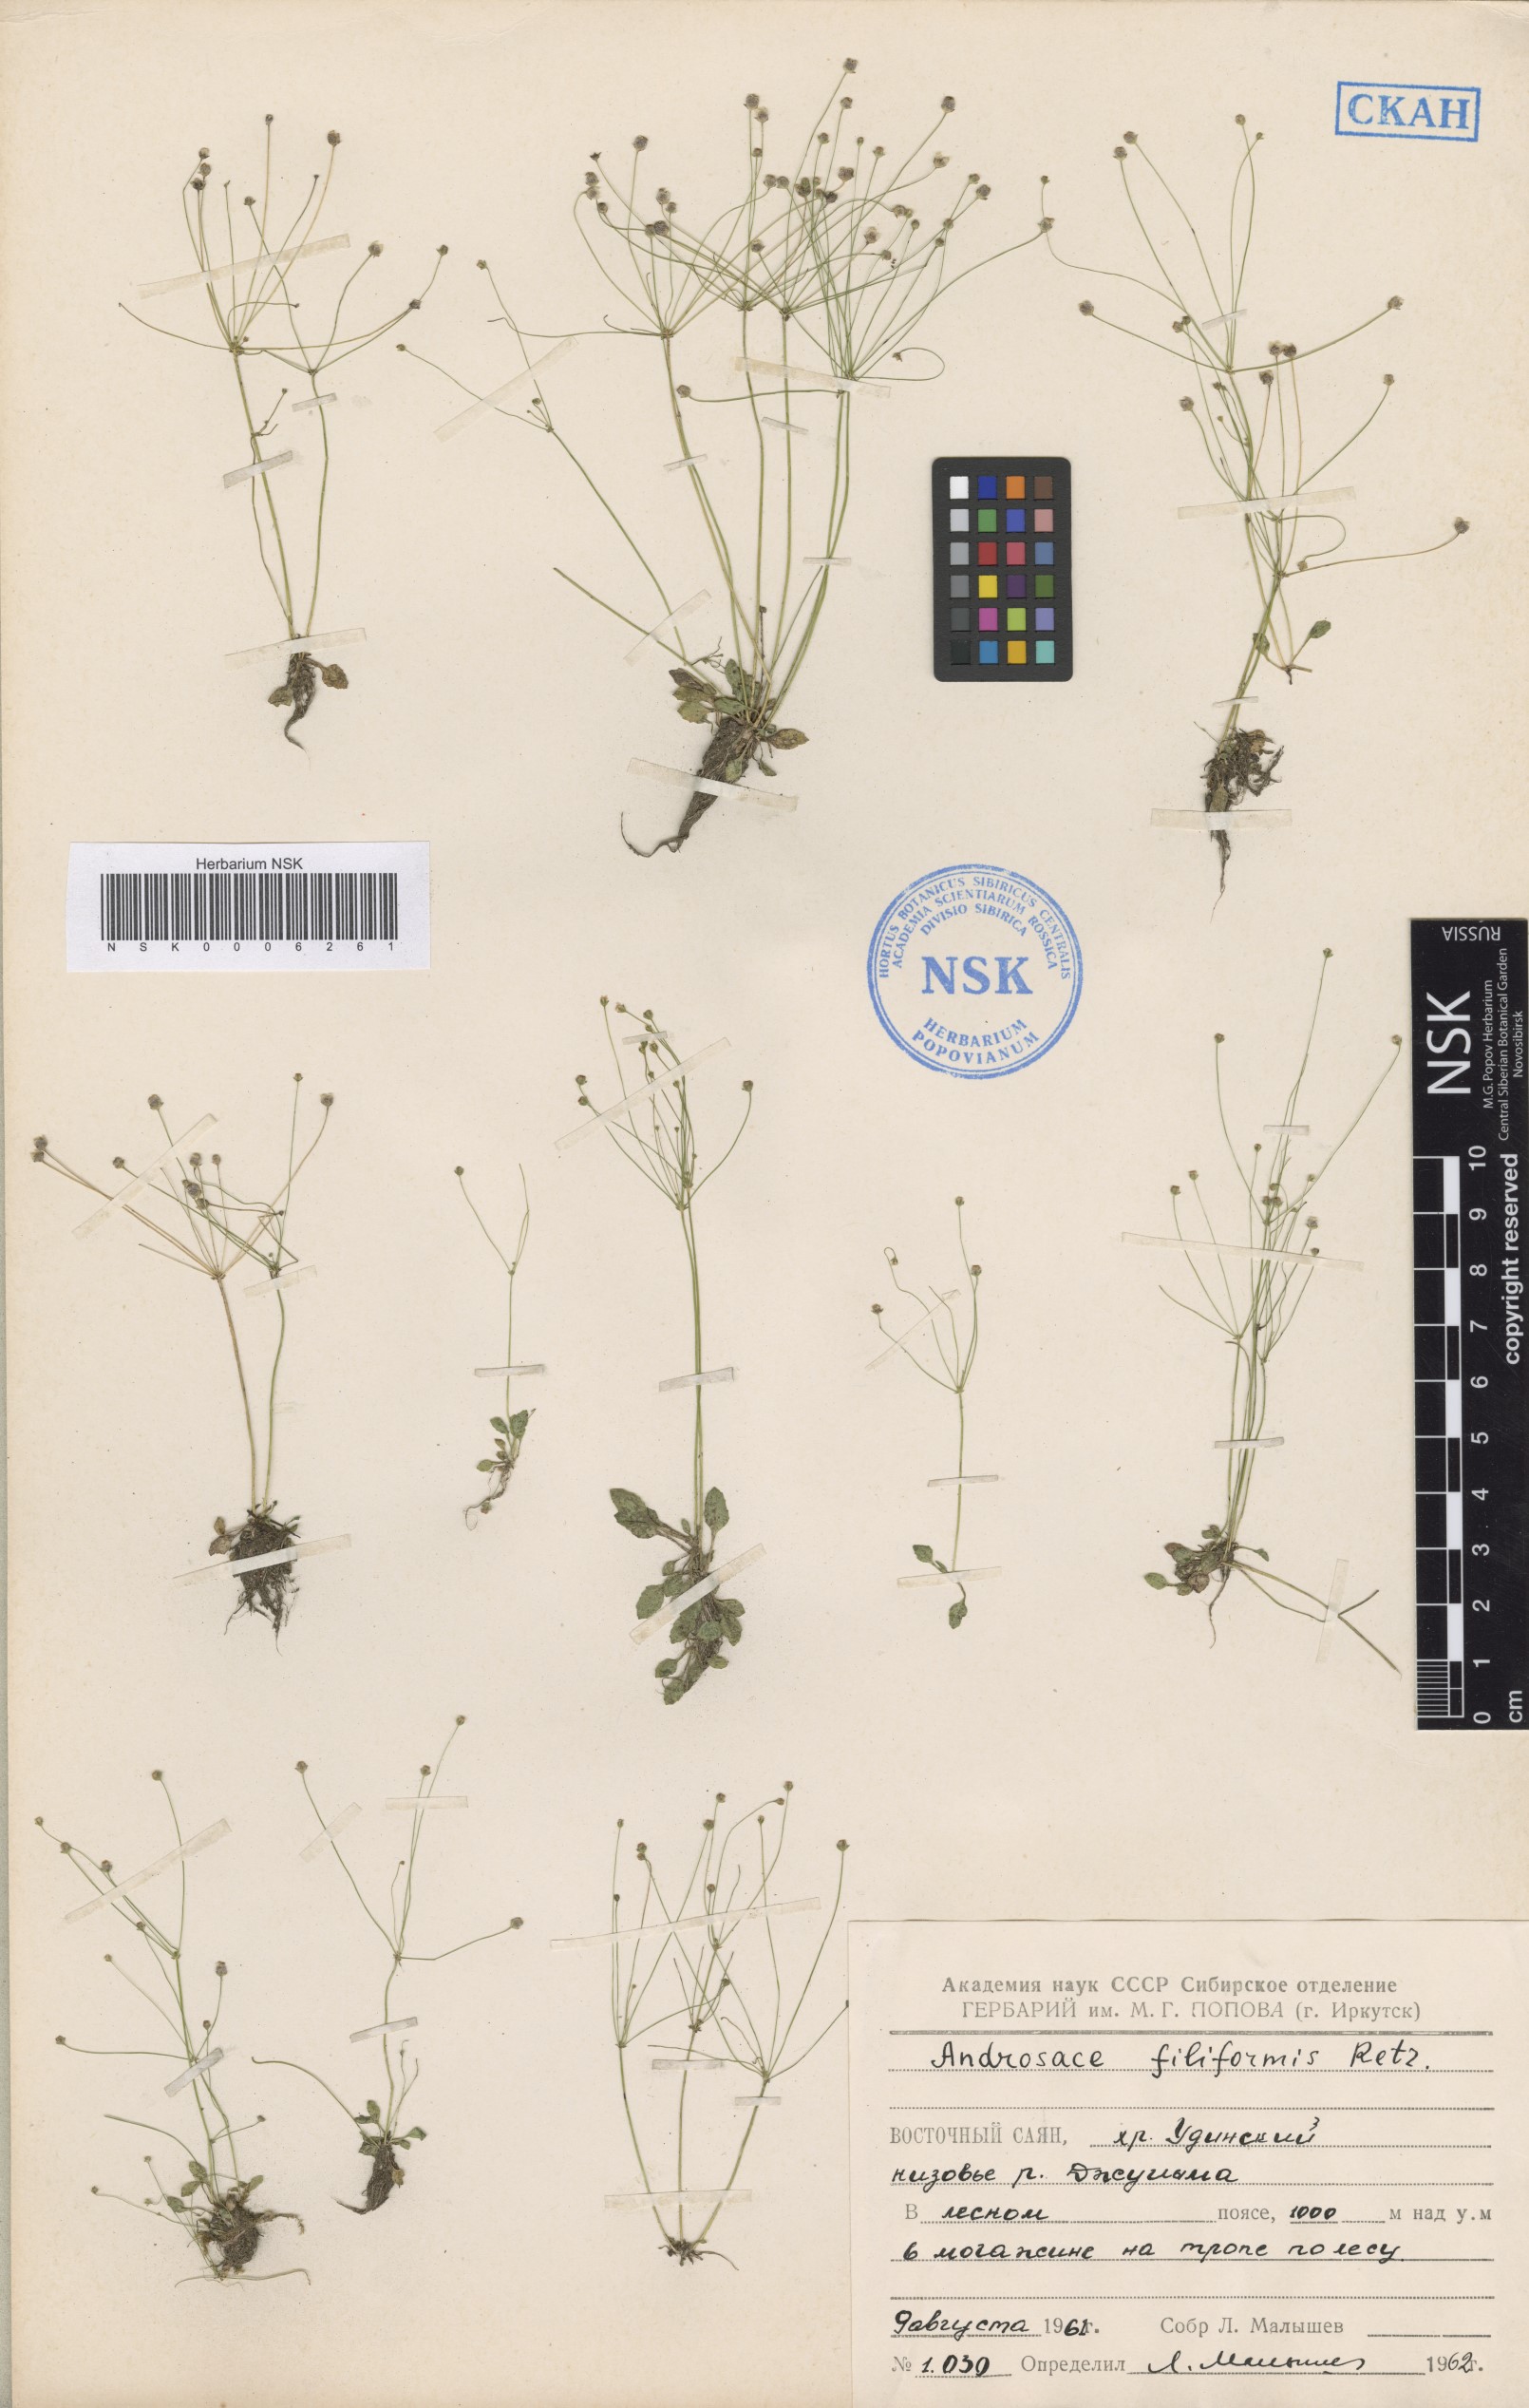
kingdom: Plantae
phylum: Tracheophyta
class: Magnoliopsida
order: Ericales
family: Primulaceae
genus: Androsace
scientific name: Androsace filiformis
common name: Filiform rock jasmine
